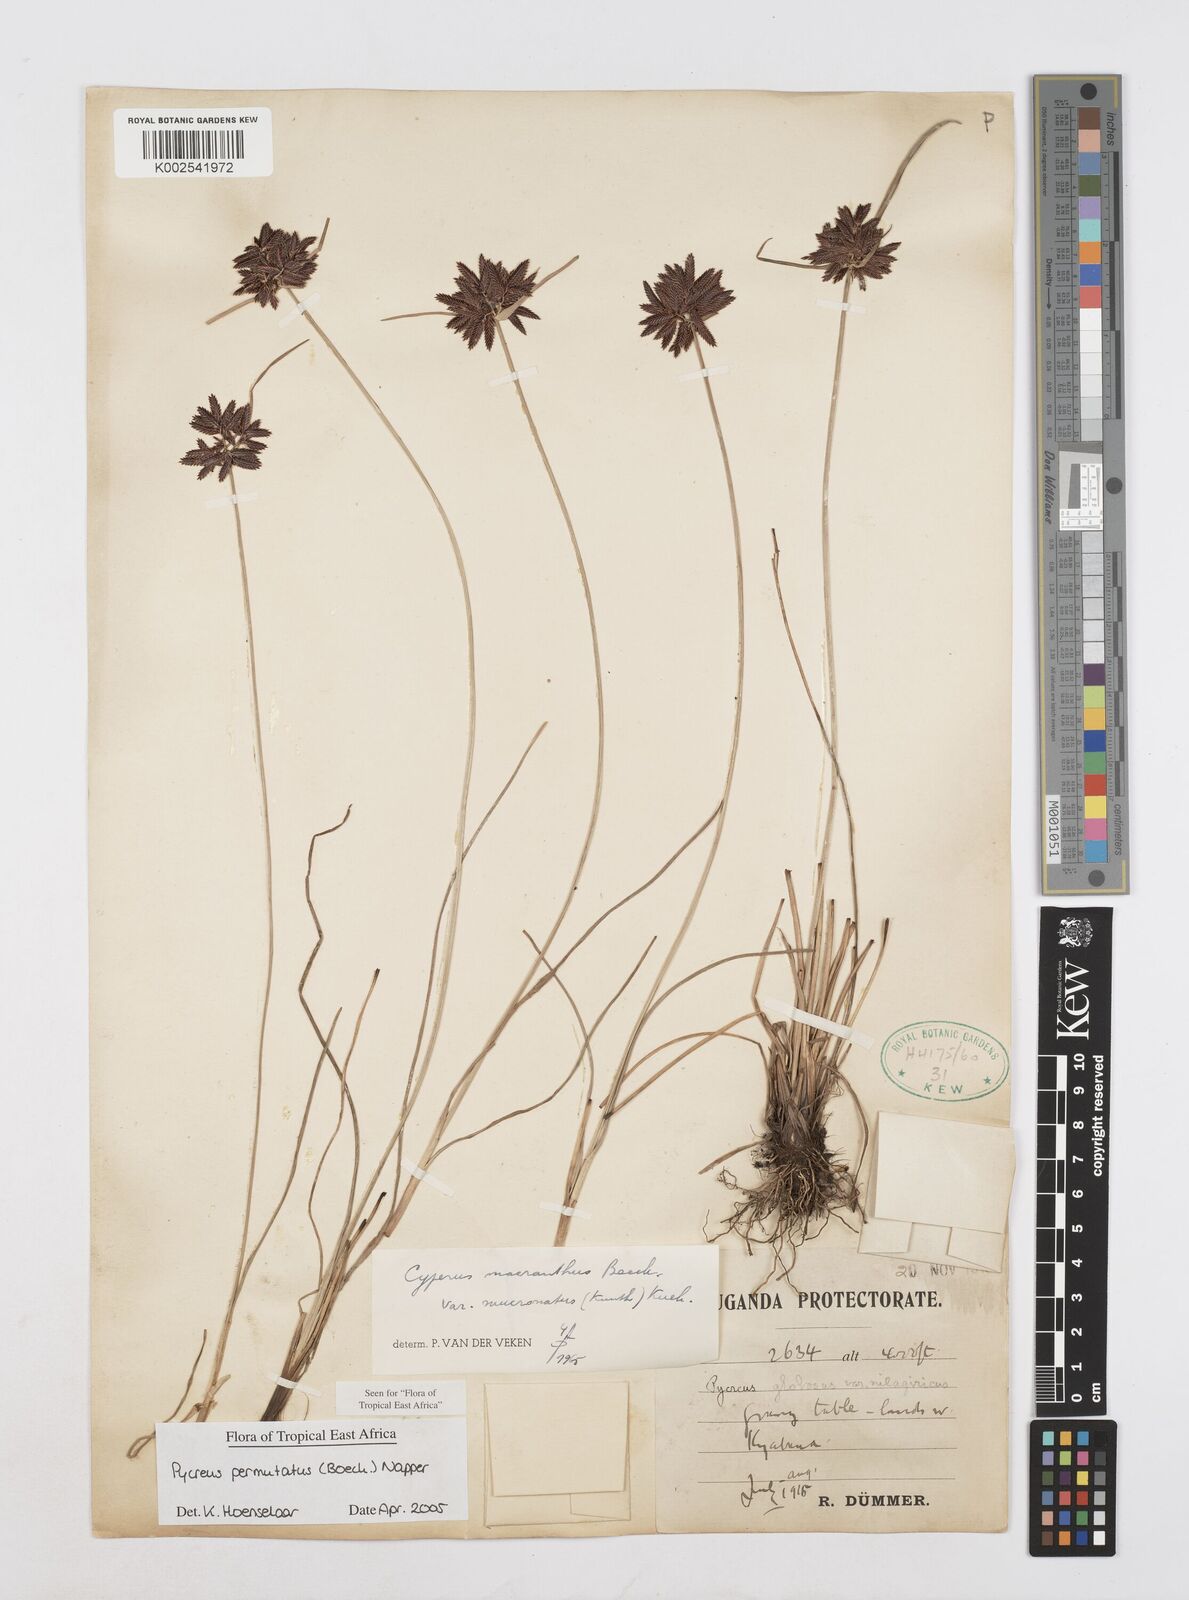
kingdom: Plantae
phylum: Tracheophyta
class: Liliopsida
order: Poales
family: Cyperaceae
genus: Cyperus
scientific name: Cyperus nigricans
